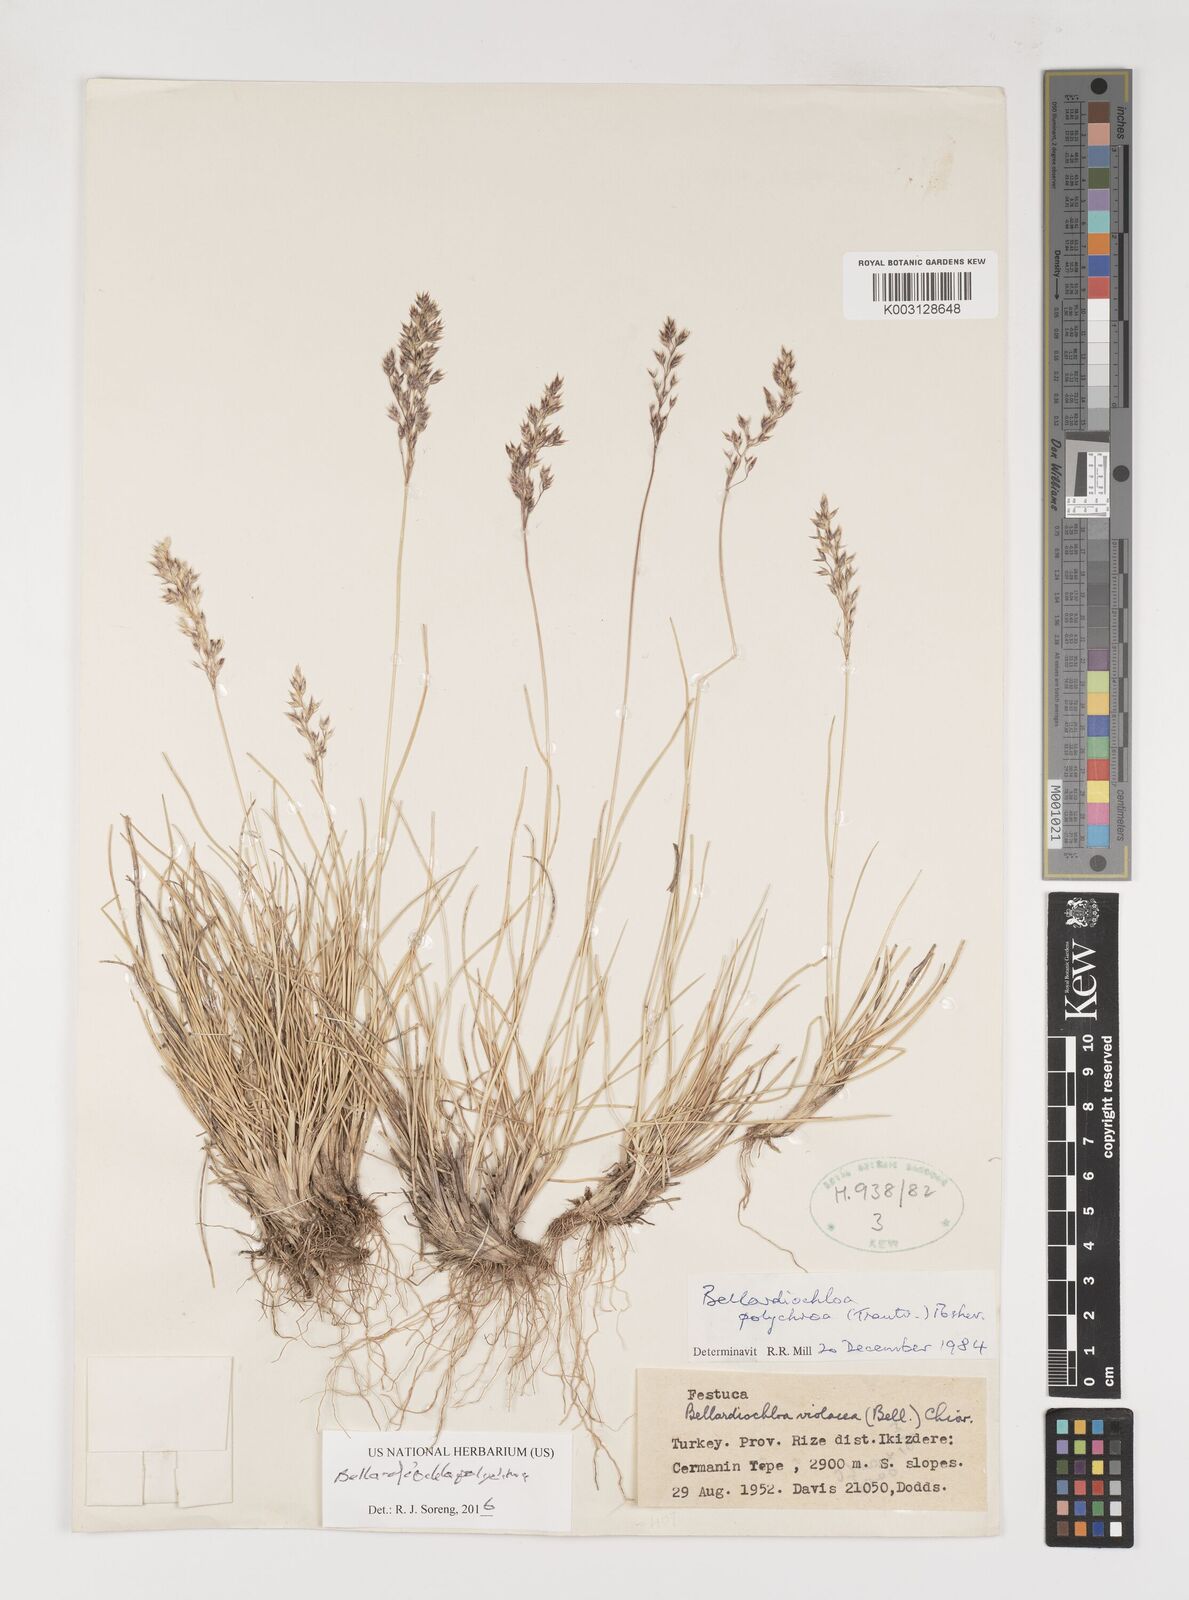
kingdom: Plantae
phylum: Tracheophyta
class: Liliopsida
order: Poales
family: Poaceae
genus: Bellardiochloa
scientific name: Bellardiochloa polychroa
